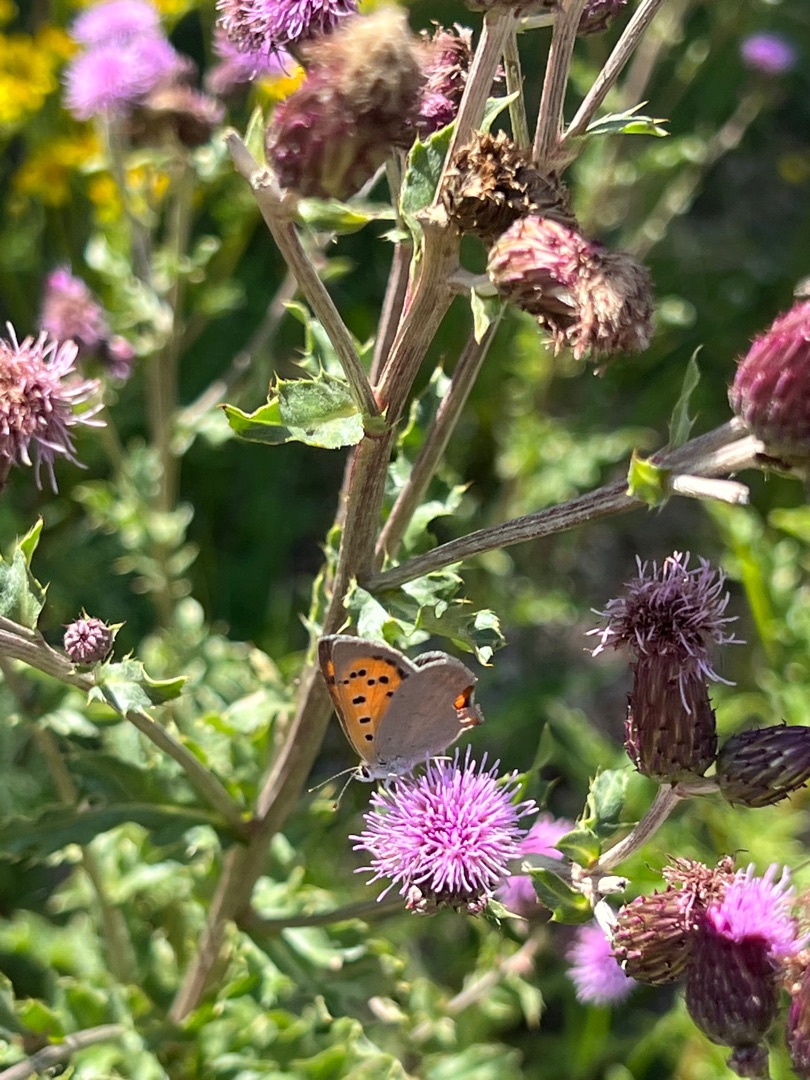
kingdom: Animalia
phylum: Arthropoda
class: Insecta
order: Lepidoptera
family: Lycaenidae
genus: Lycaena
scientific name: Lycaena phlaeas
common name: Lille ildfugl
